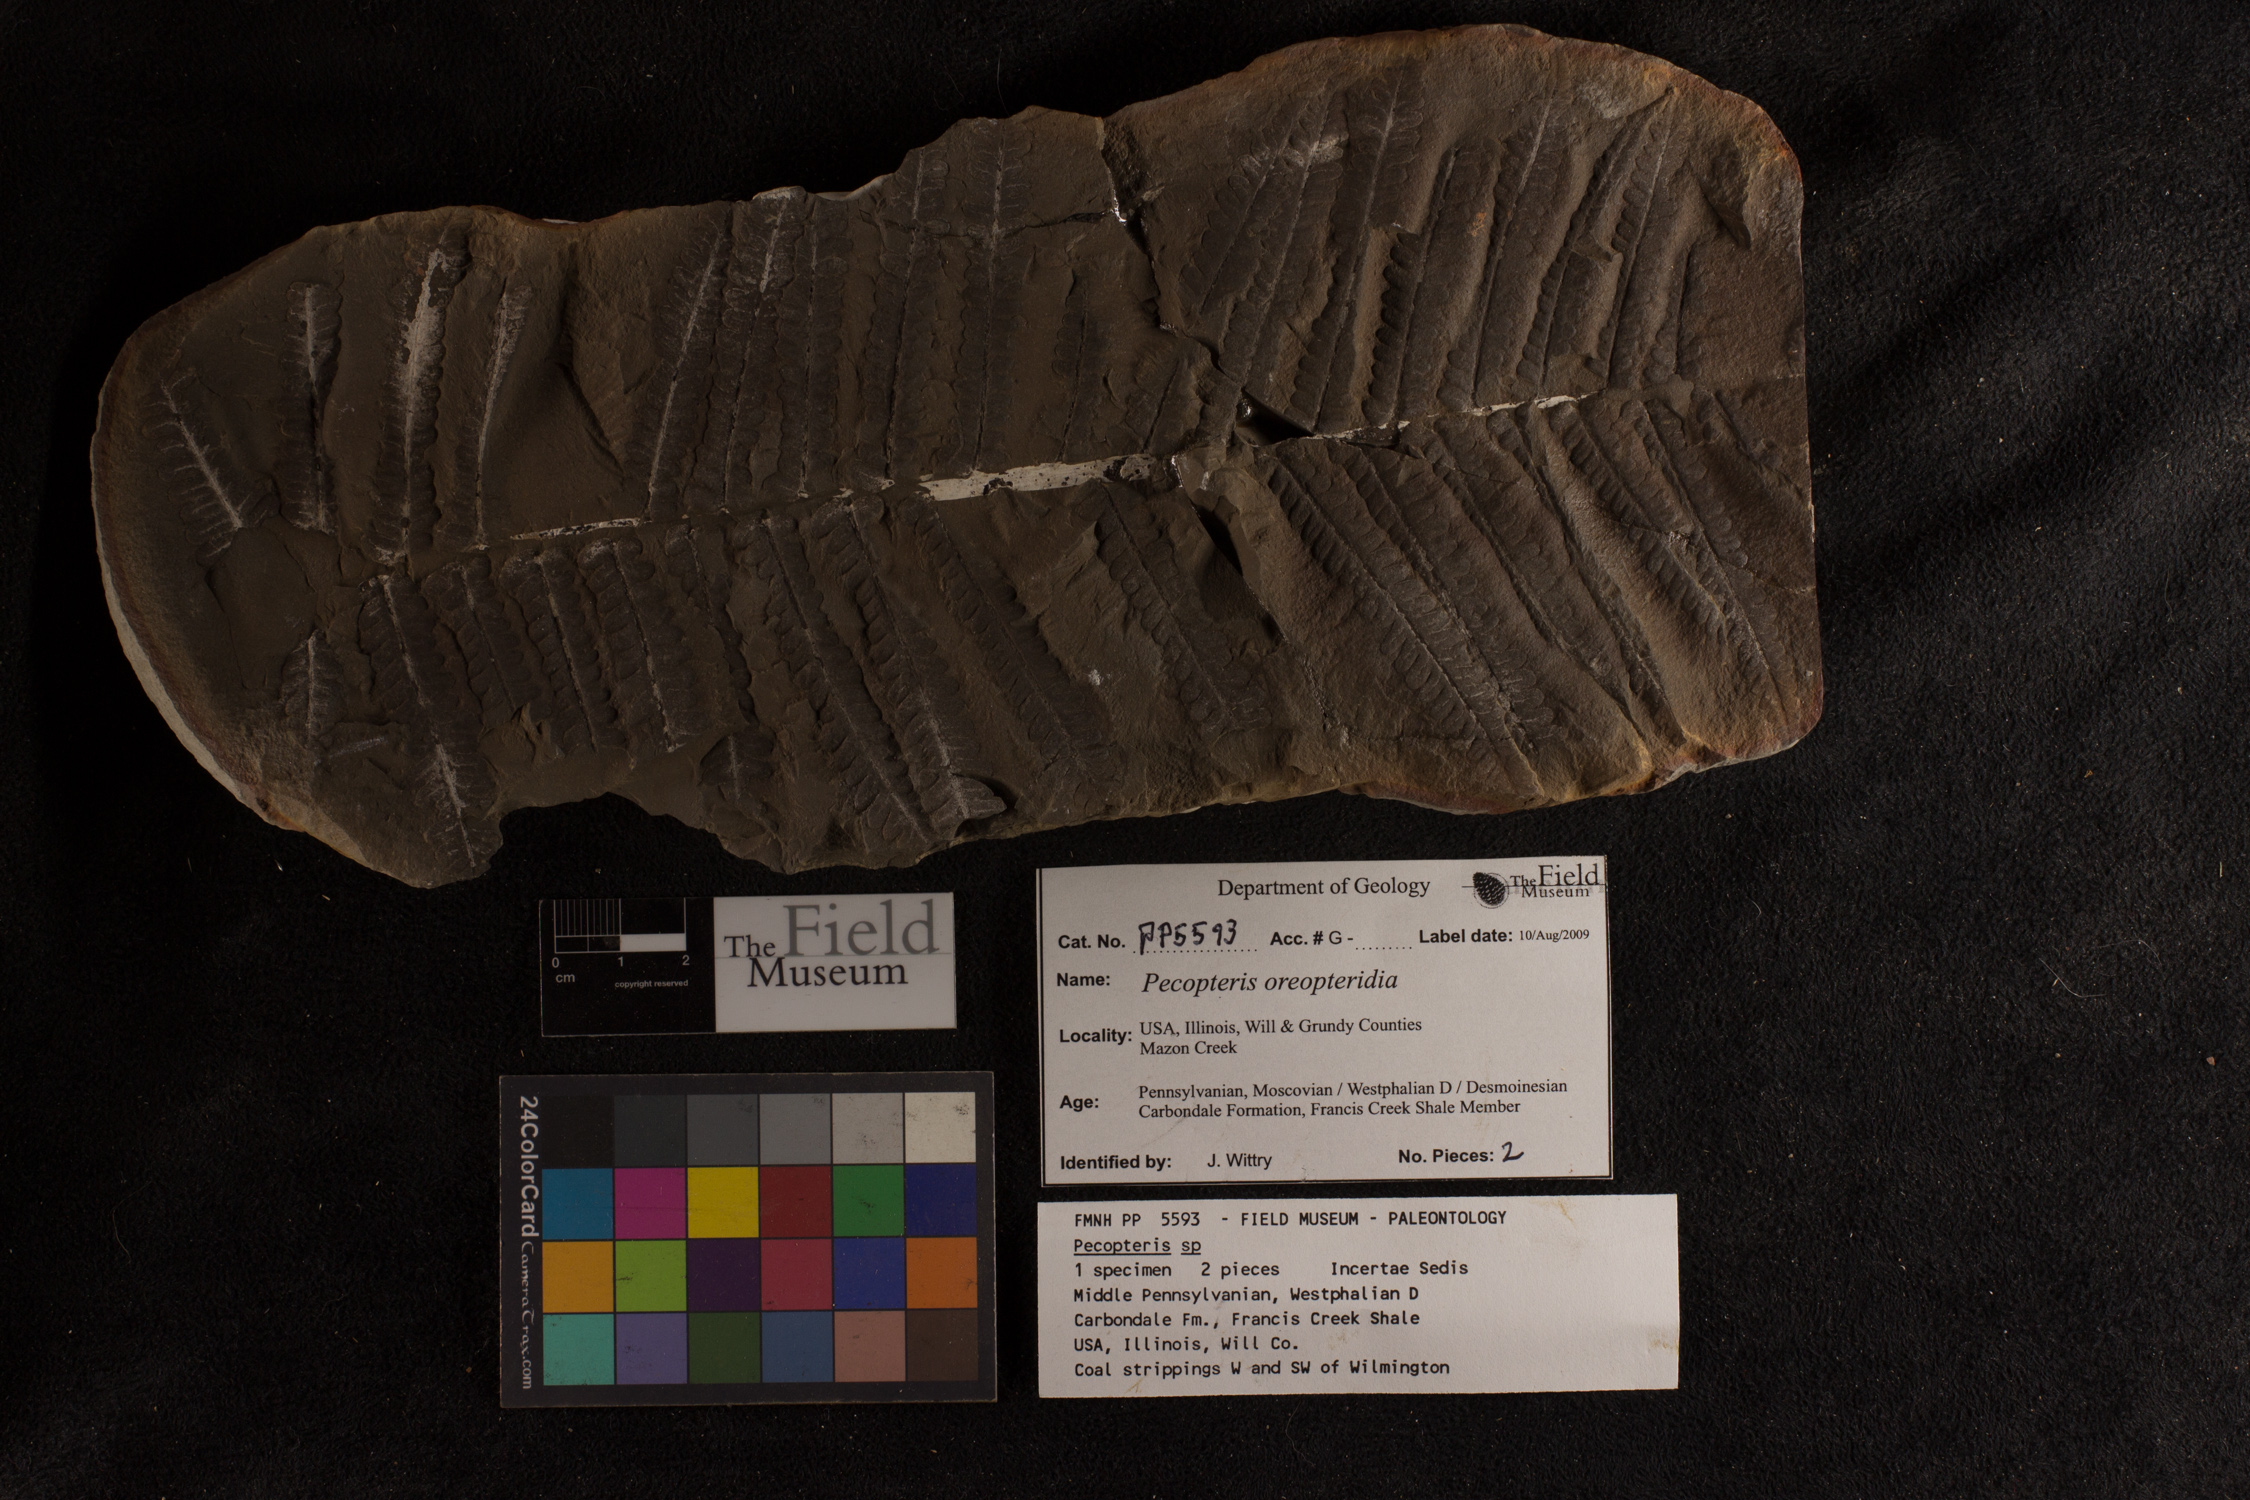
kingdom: Plantae
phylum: Tracheophyta
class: Polypodiopsida
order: Marattiales
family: Asterothecaceae
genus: Pecopteris
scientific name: Pecopteris
